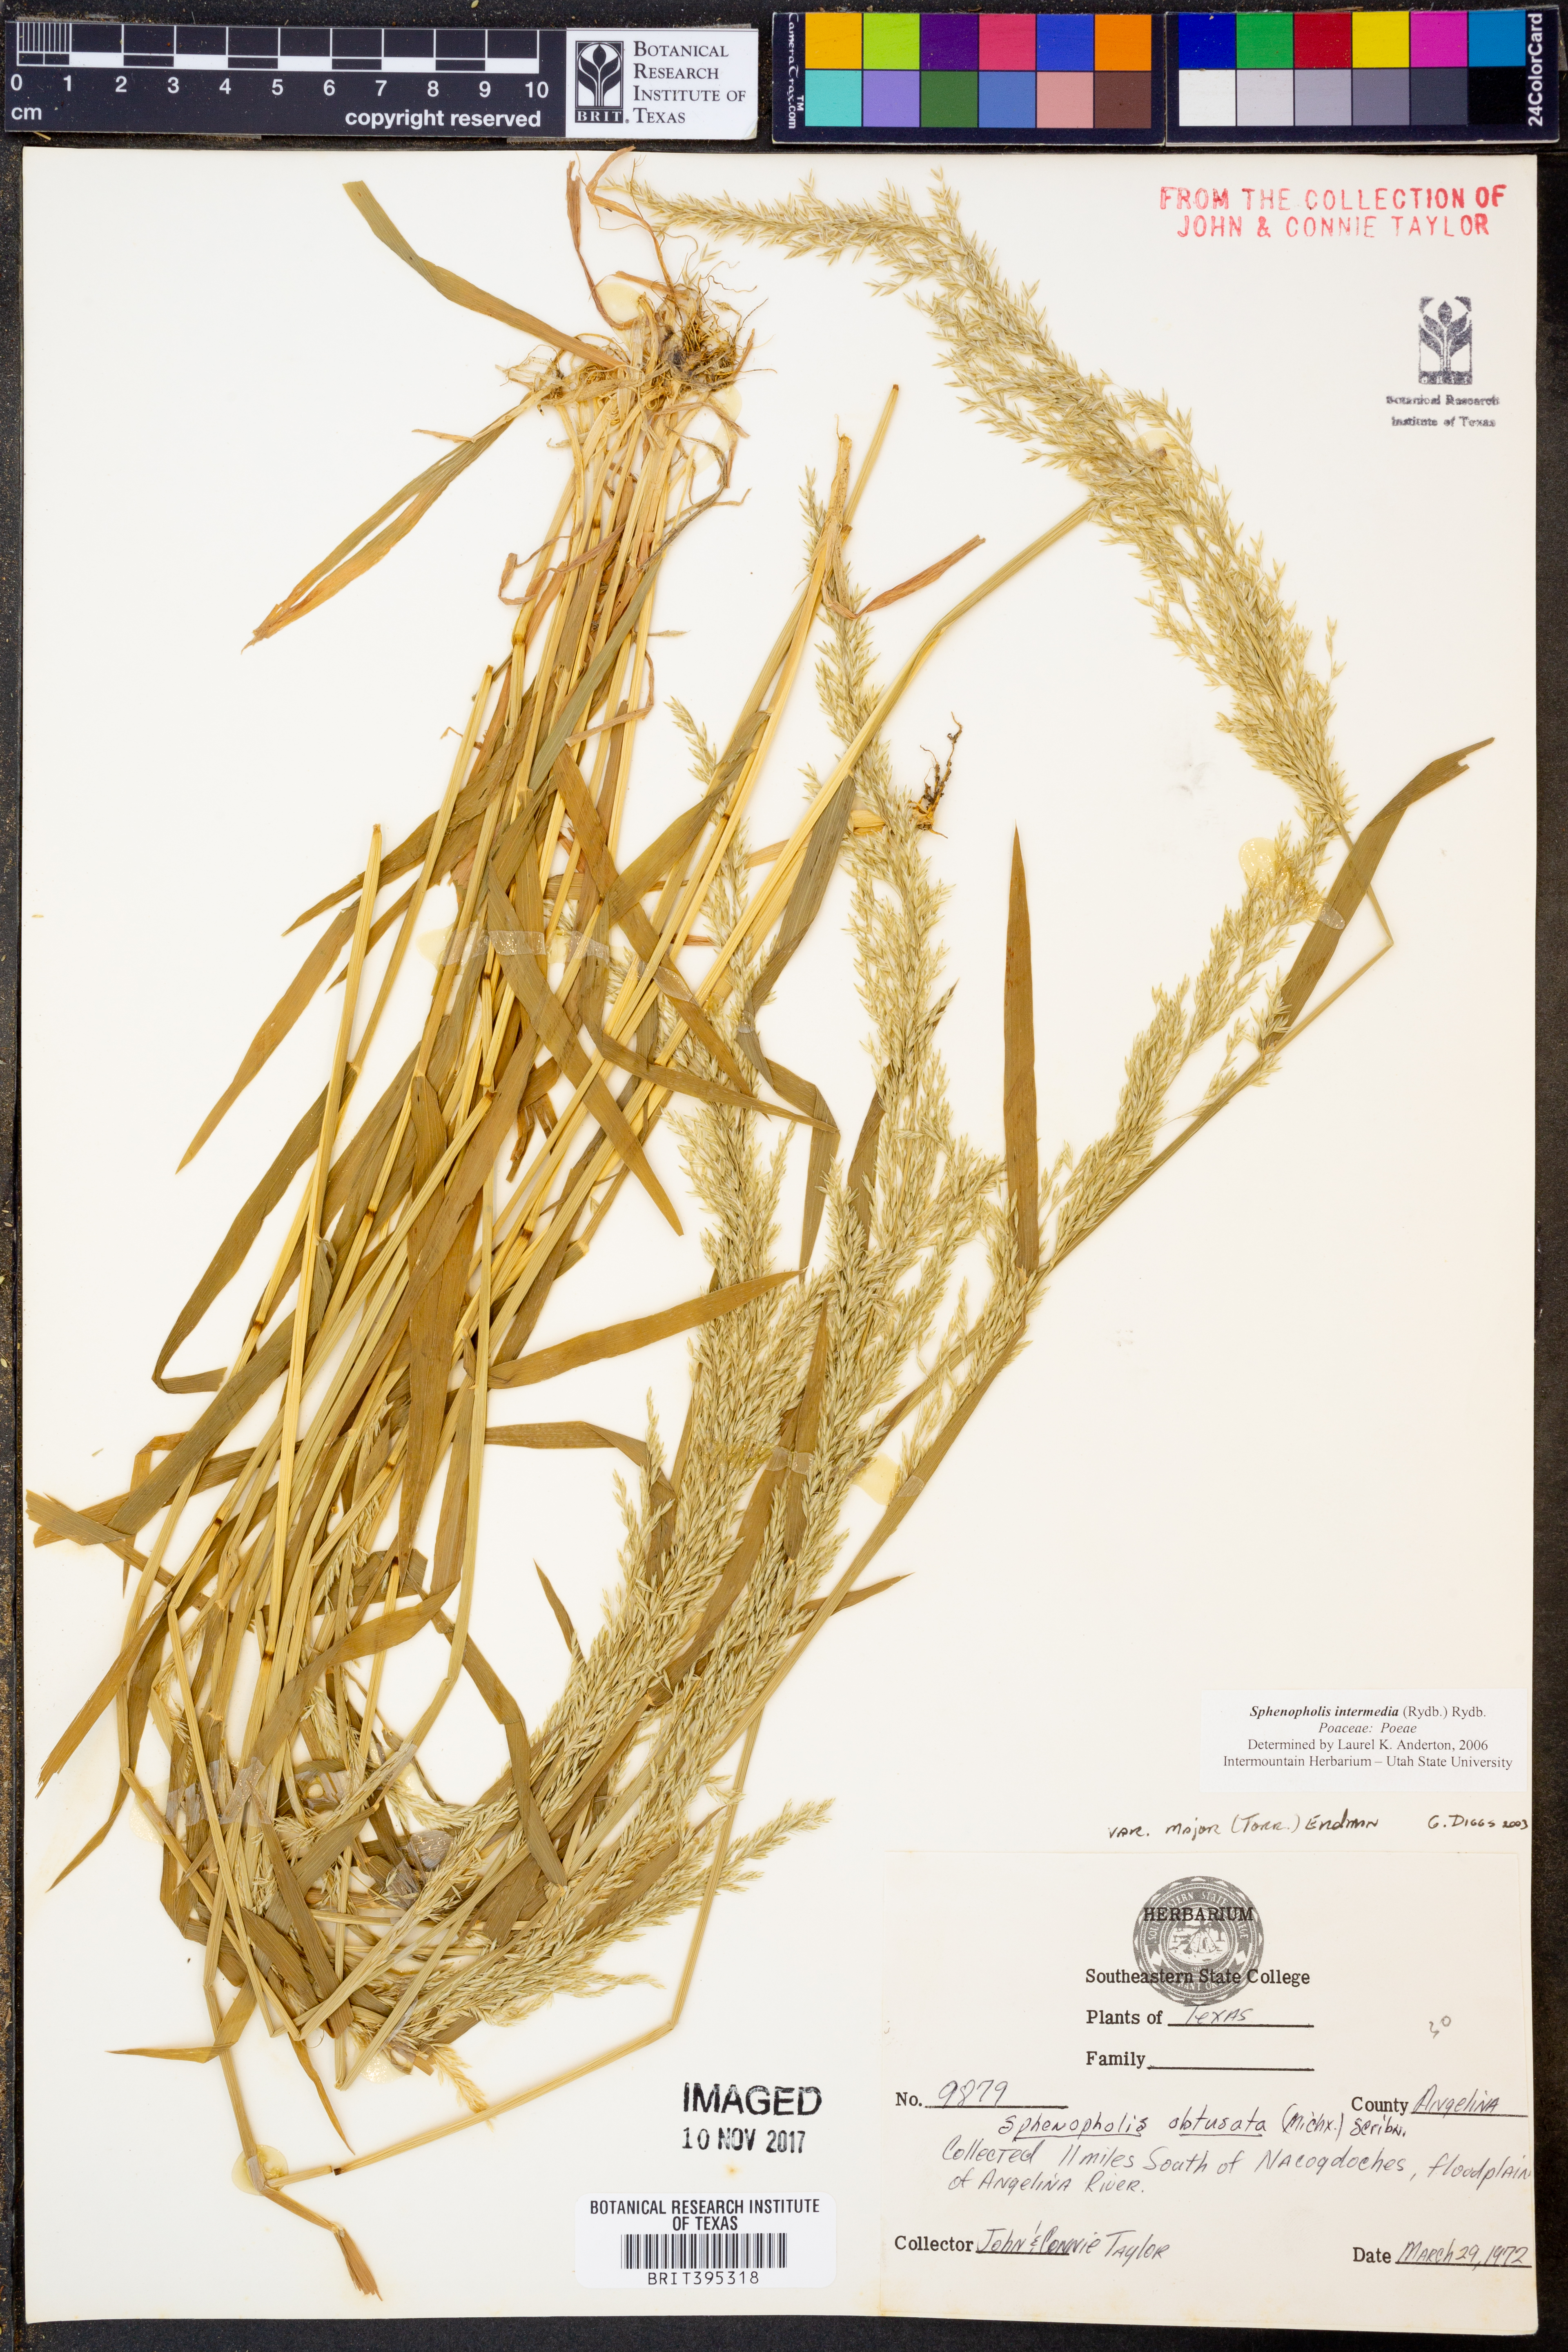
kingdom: Plantae
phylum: Tracheophyta
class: Liliopsida
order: Poales
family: Poaceae
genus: Sphenopholis
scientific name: Sphenopholis intermedia
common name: Intermediate eaton's grass
